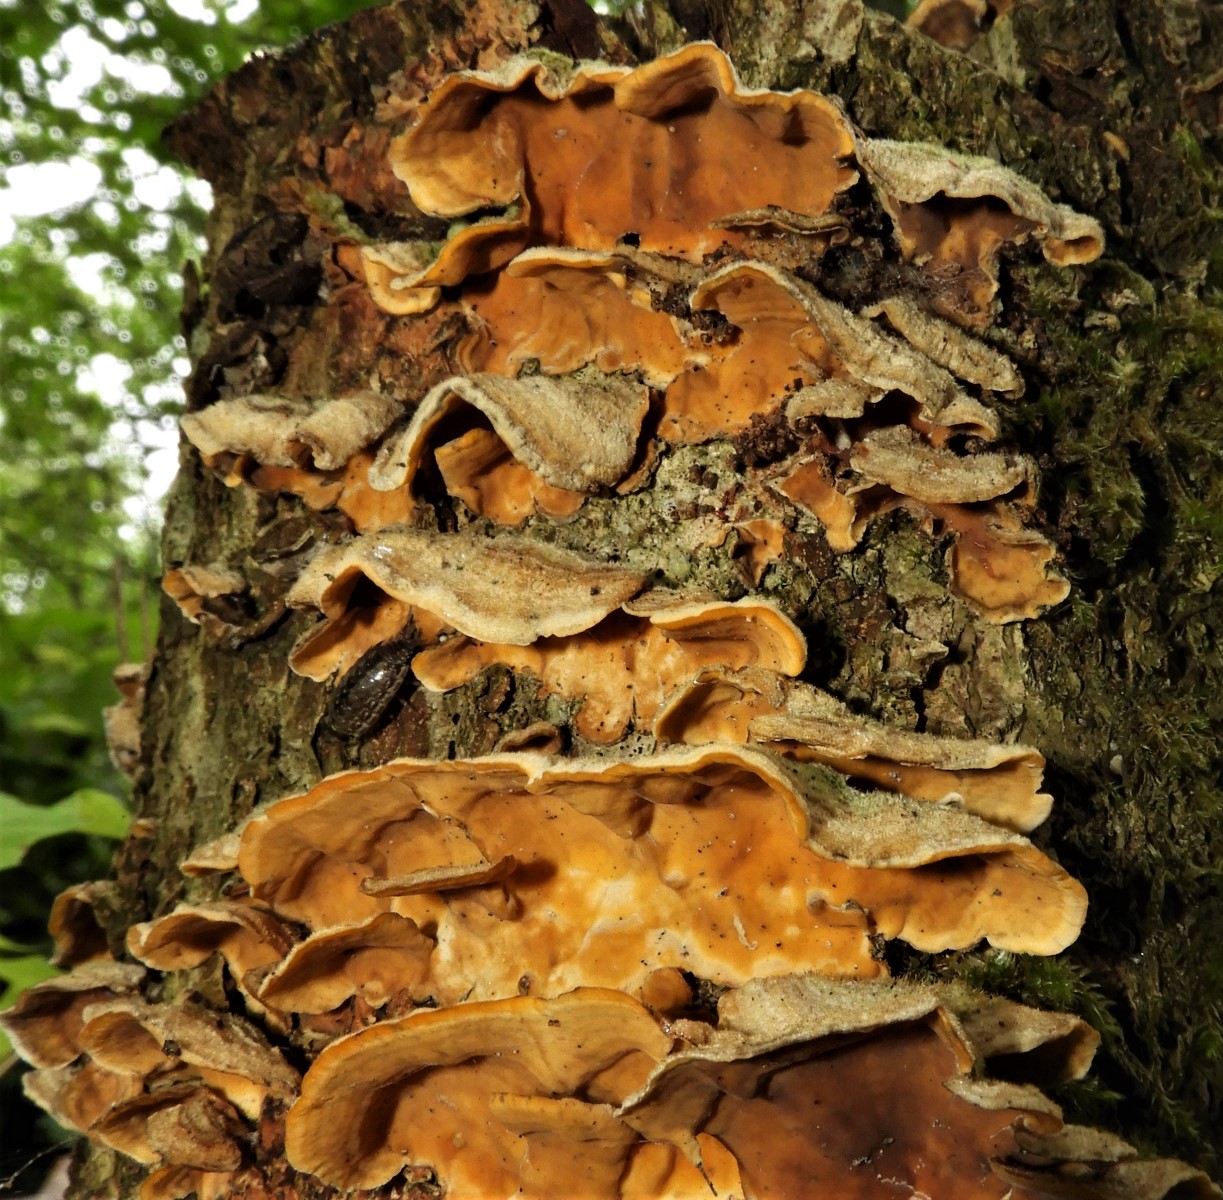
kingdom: Fungi
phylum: Basidiomycota
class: Agaricomycetes
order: Russulales
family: Stereaceae
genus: Stereum
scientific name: Stereum hirsutum
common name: håret lædersvamp
